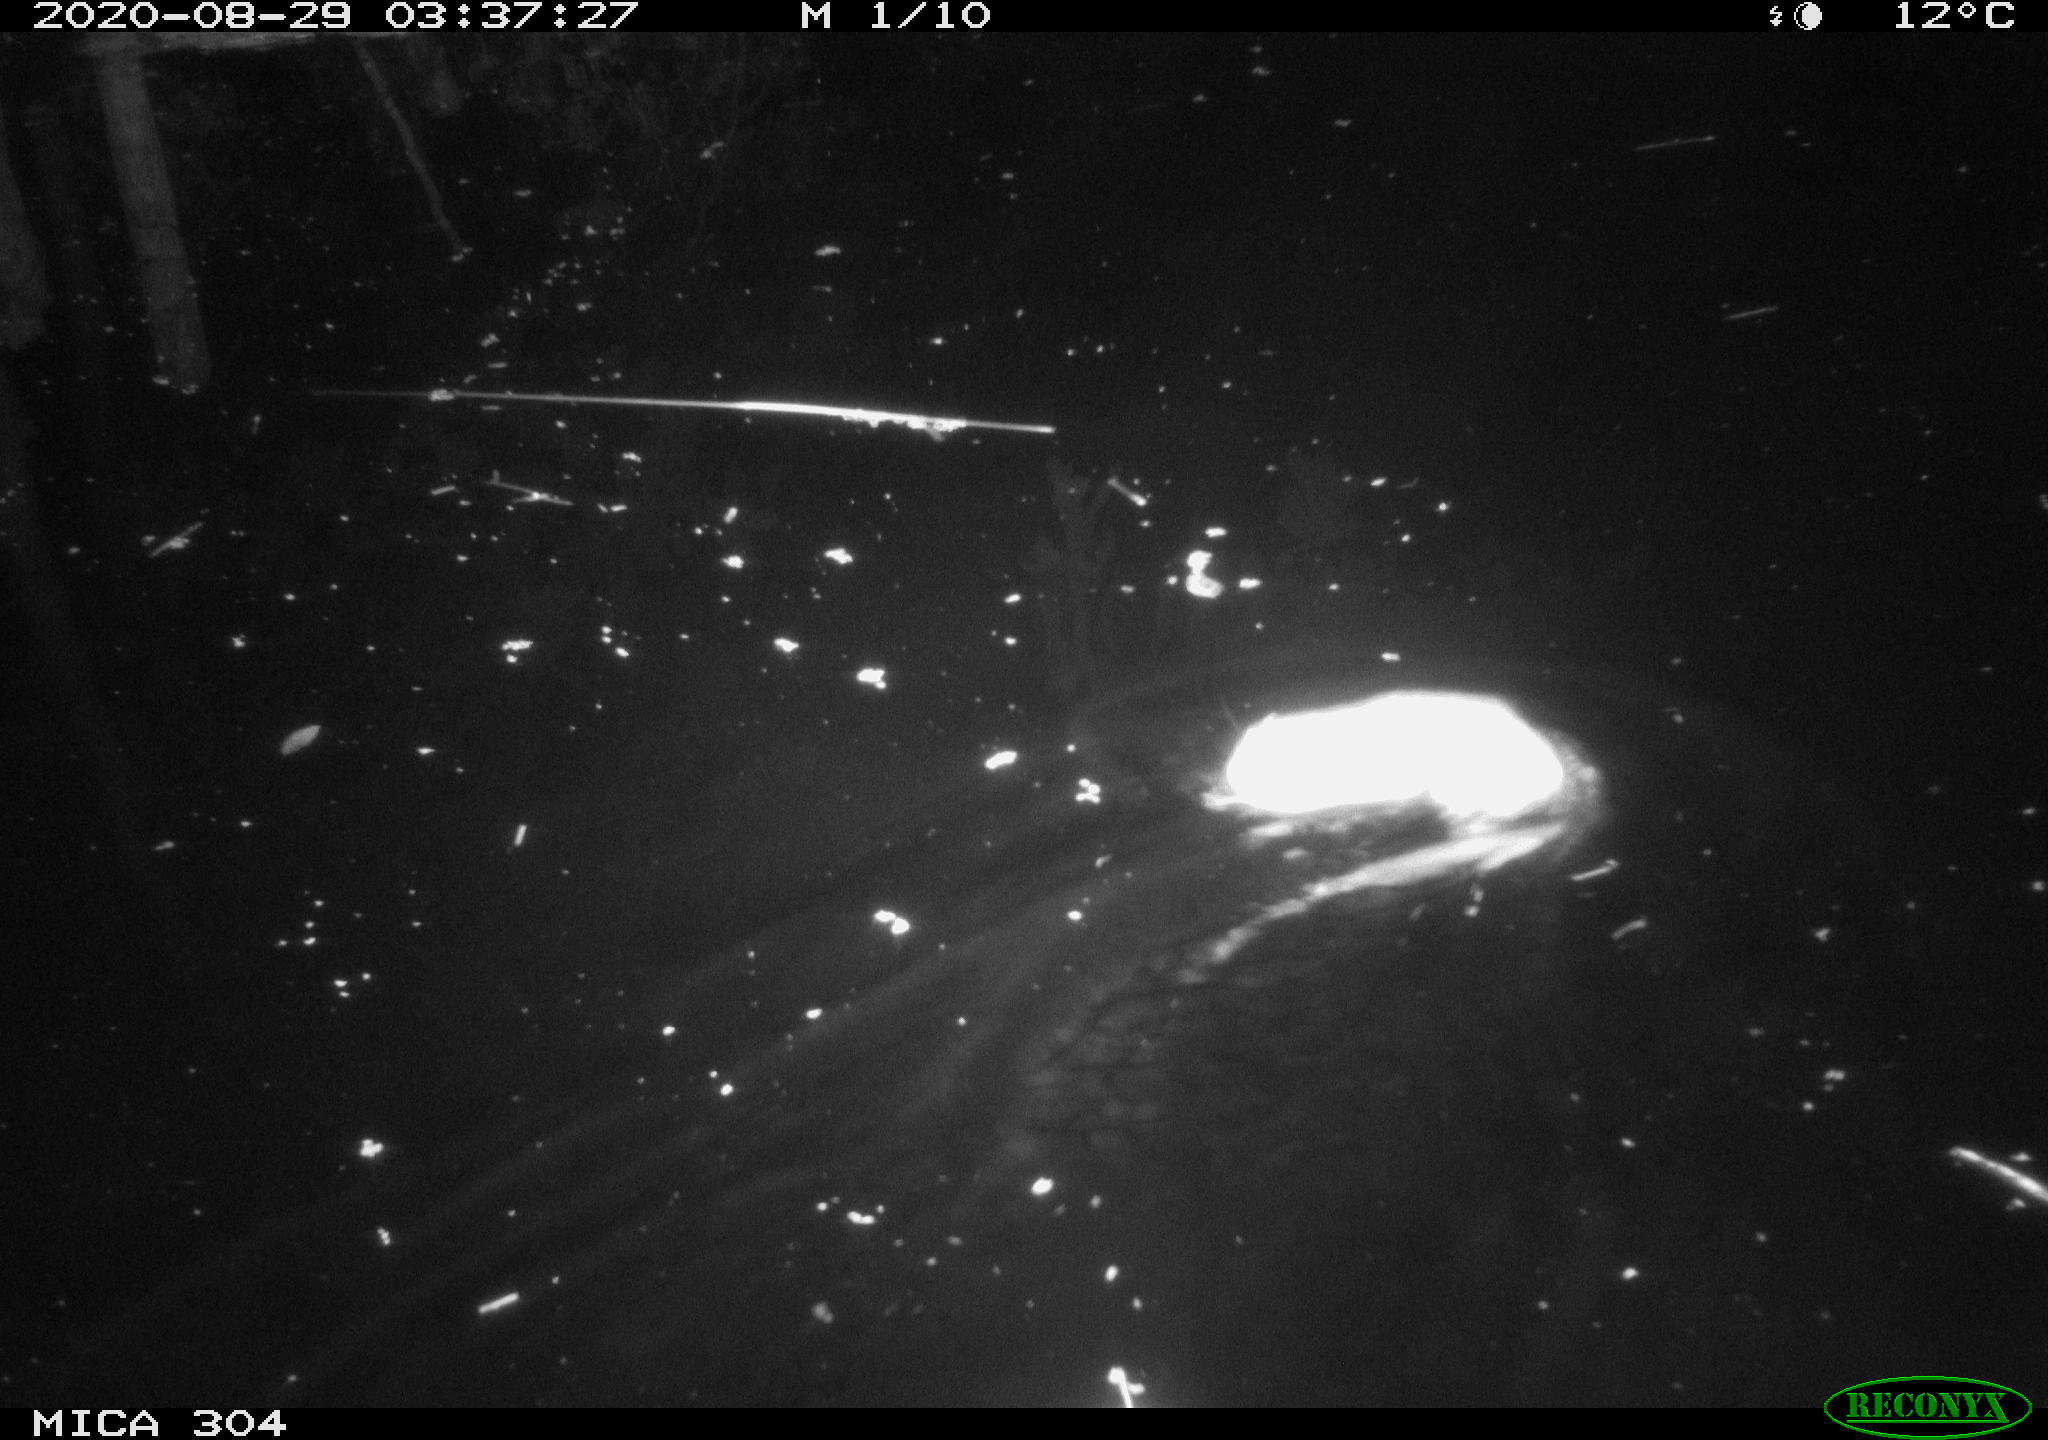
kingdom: Animalia
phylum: Chordata
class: Mammalia
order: Rodentia
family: Cricetidae
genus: Ondatra
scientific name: Ondatra zibethicus
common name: Muskrat
